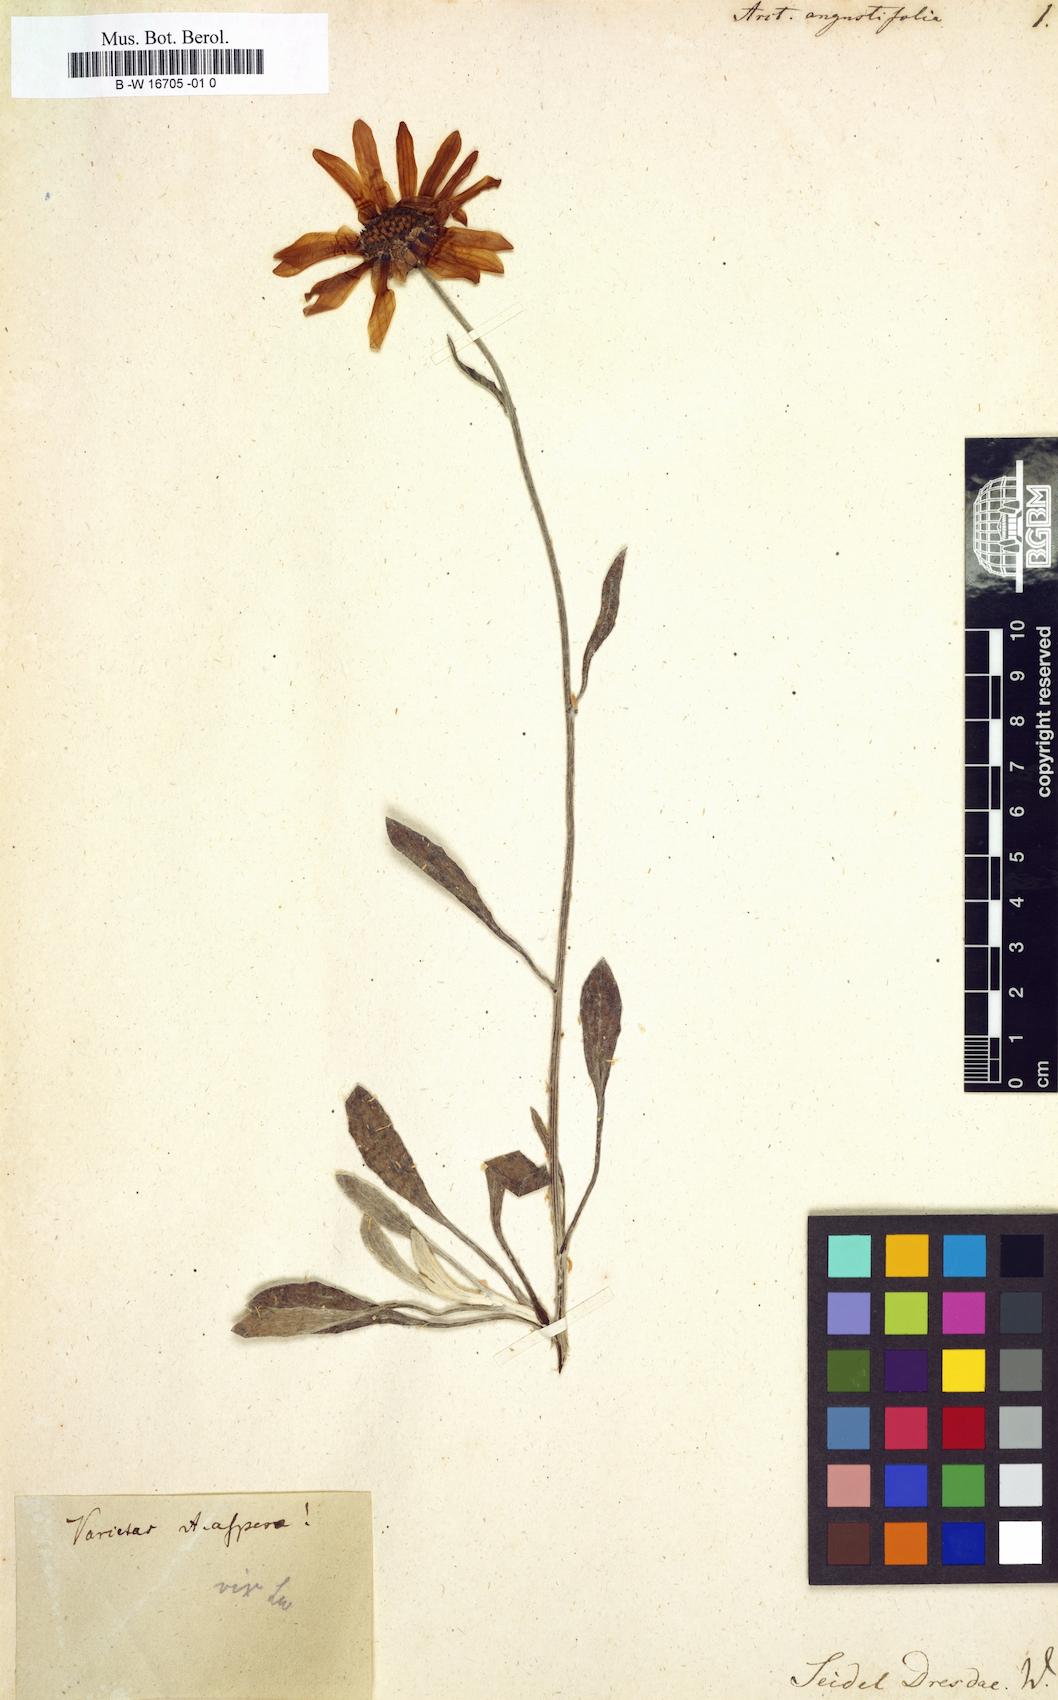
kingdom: Plantae
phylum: Tracheophyta
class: Magnoliopsida
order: Asterales
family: Asteraceae
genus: Arctotis
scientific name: Arctotis angustifolia
